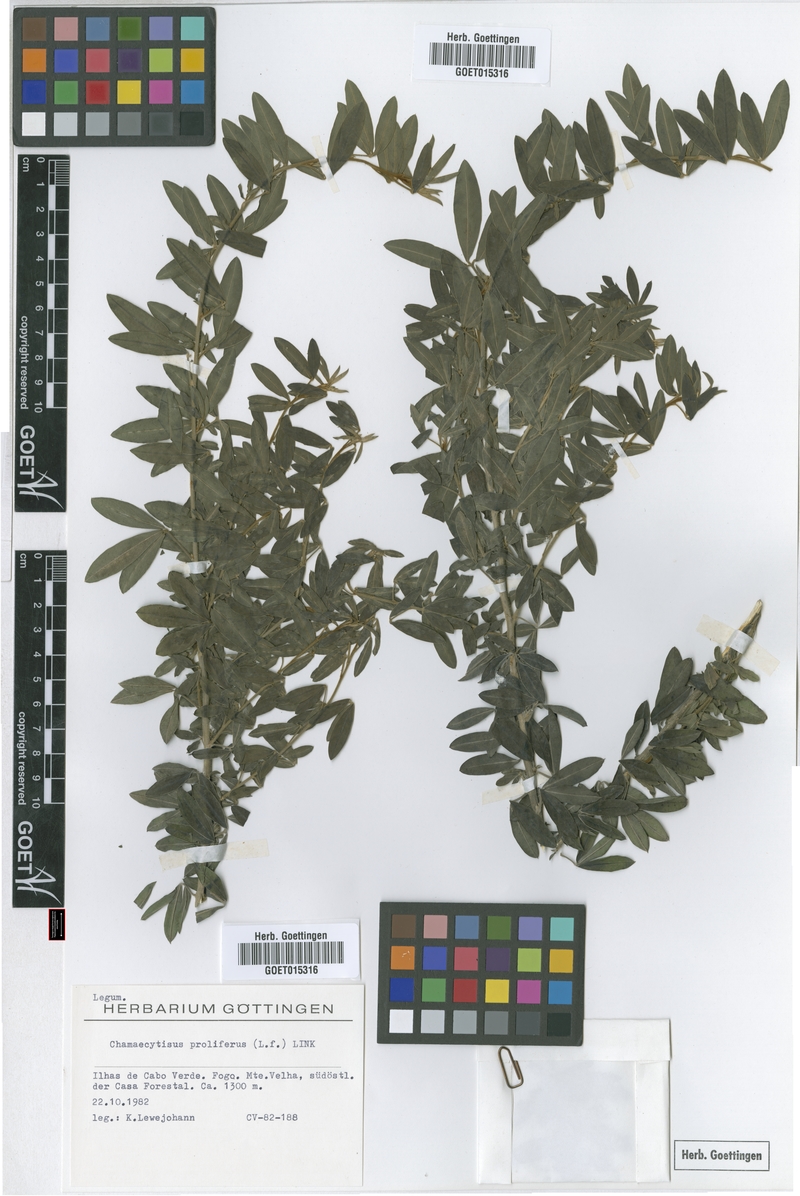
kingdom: Plantae
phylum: Tracheophyta
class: Magnoliopsida
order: Fabales
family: Fabaceae
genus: Cytisus
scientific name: Cytisus proliferus
